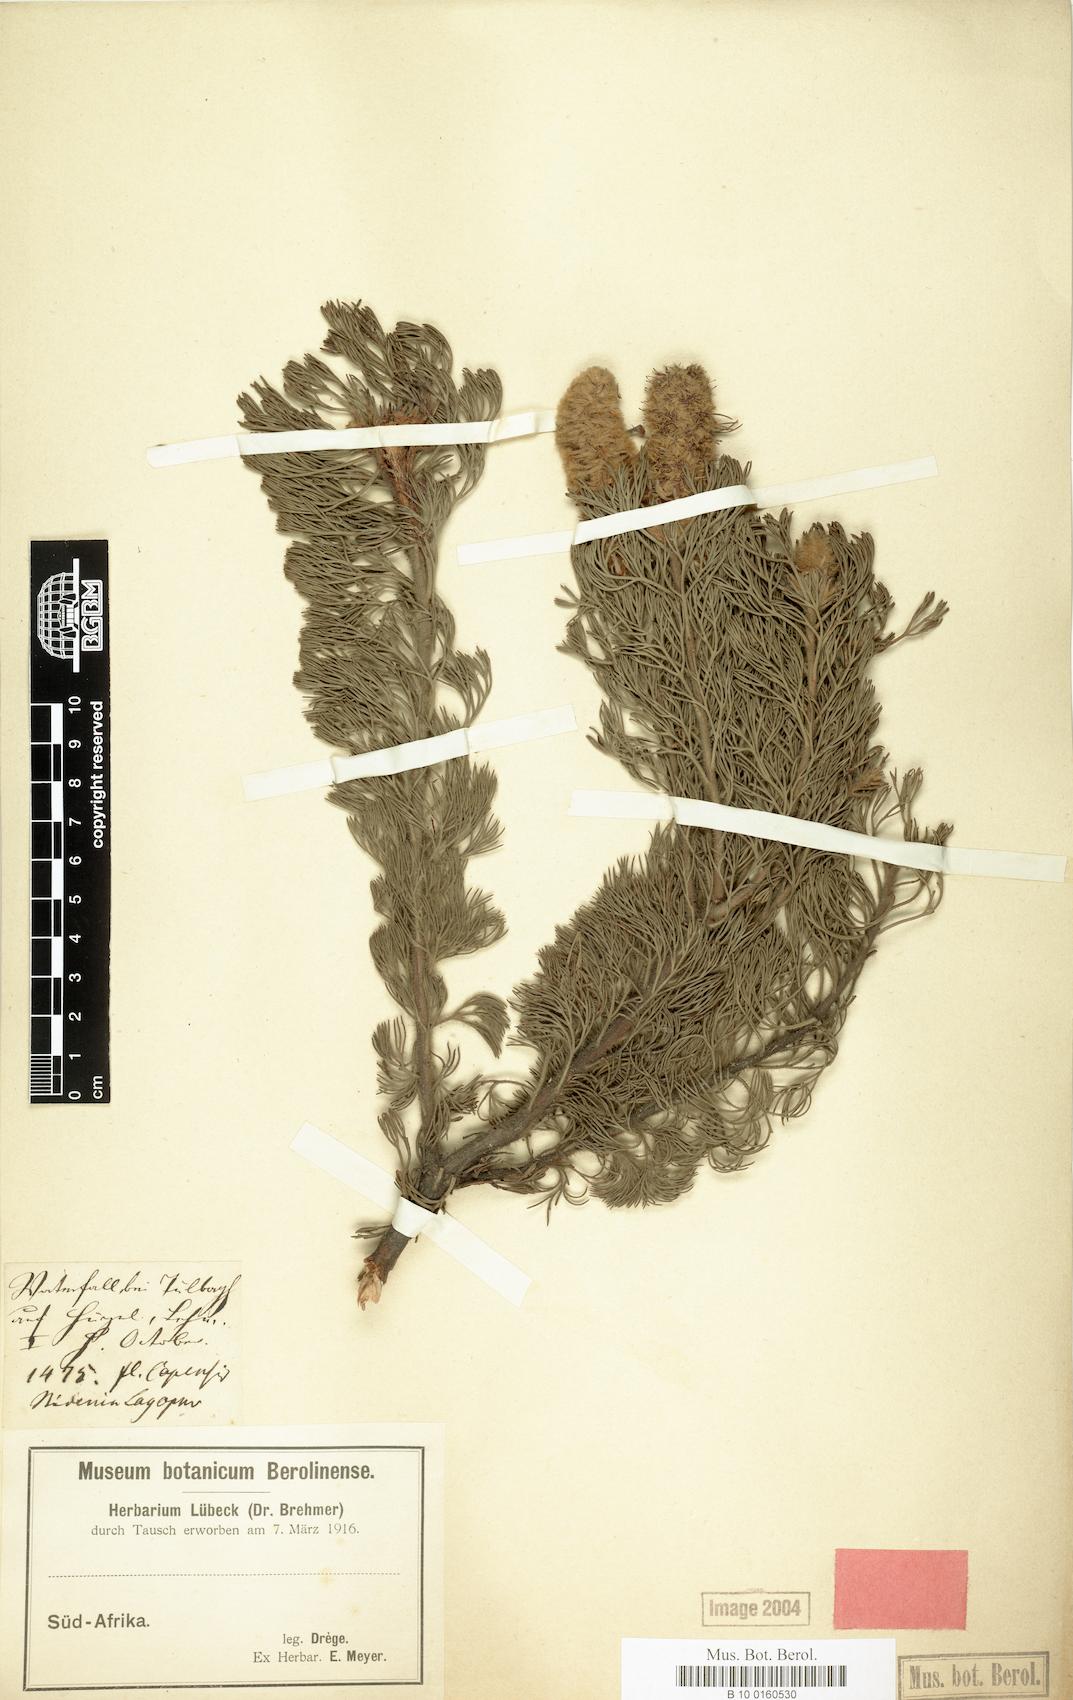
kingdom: Plantae
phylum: Tracheophyta
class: Magnoliopsida
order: Proteales
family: Proteaceae
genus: Paranomus
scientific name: Paranomus lagopus
